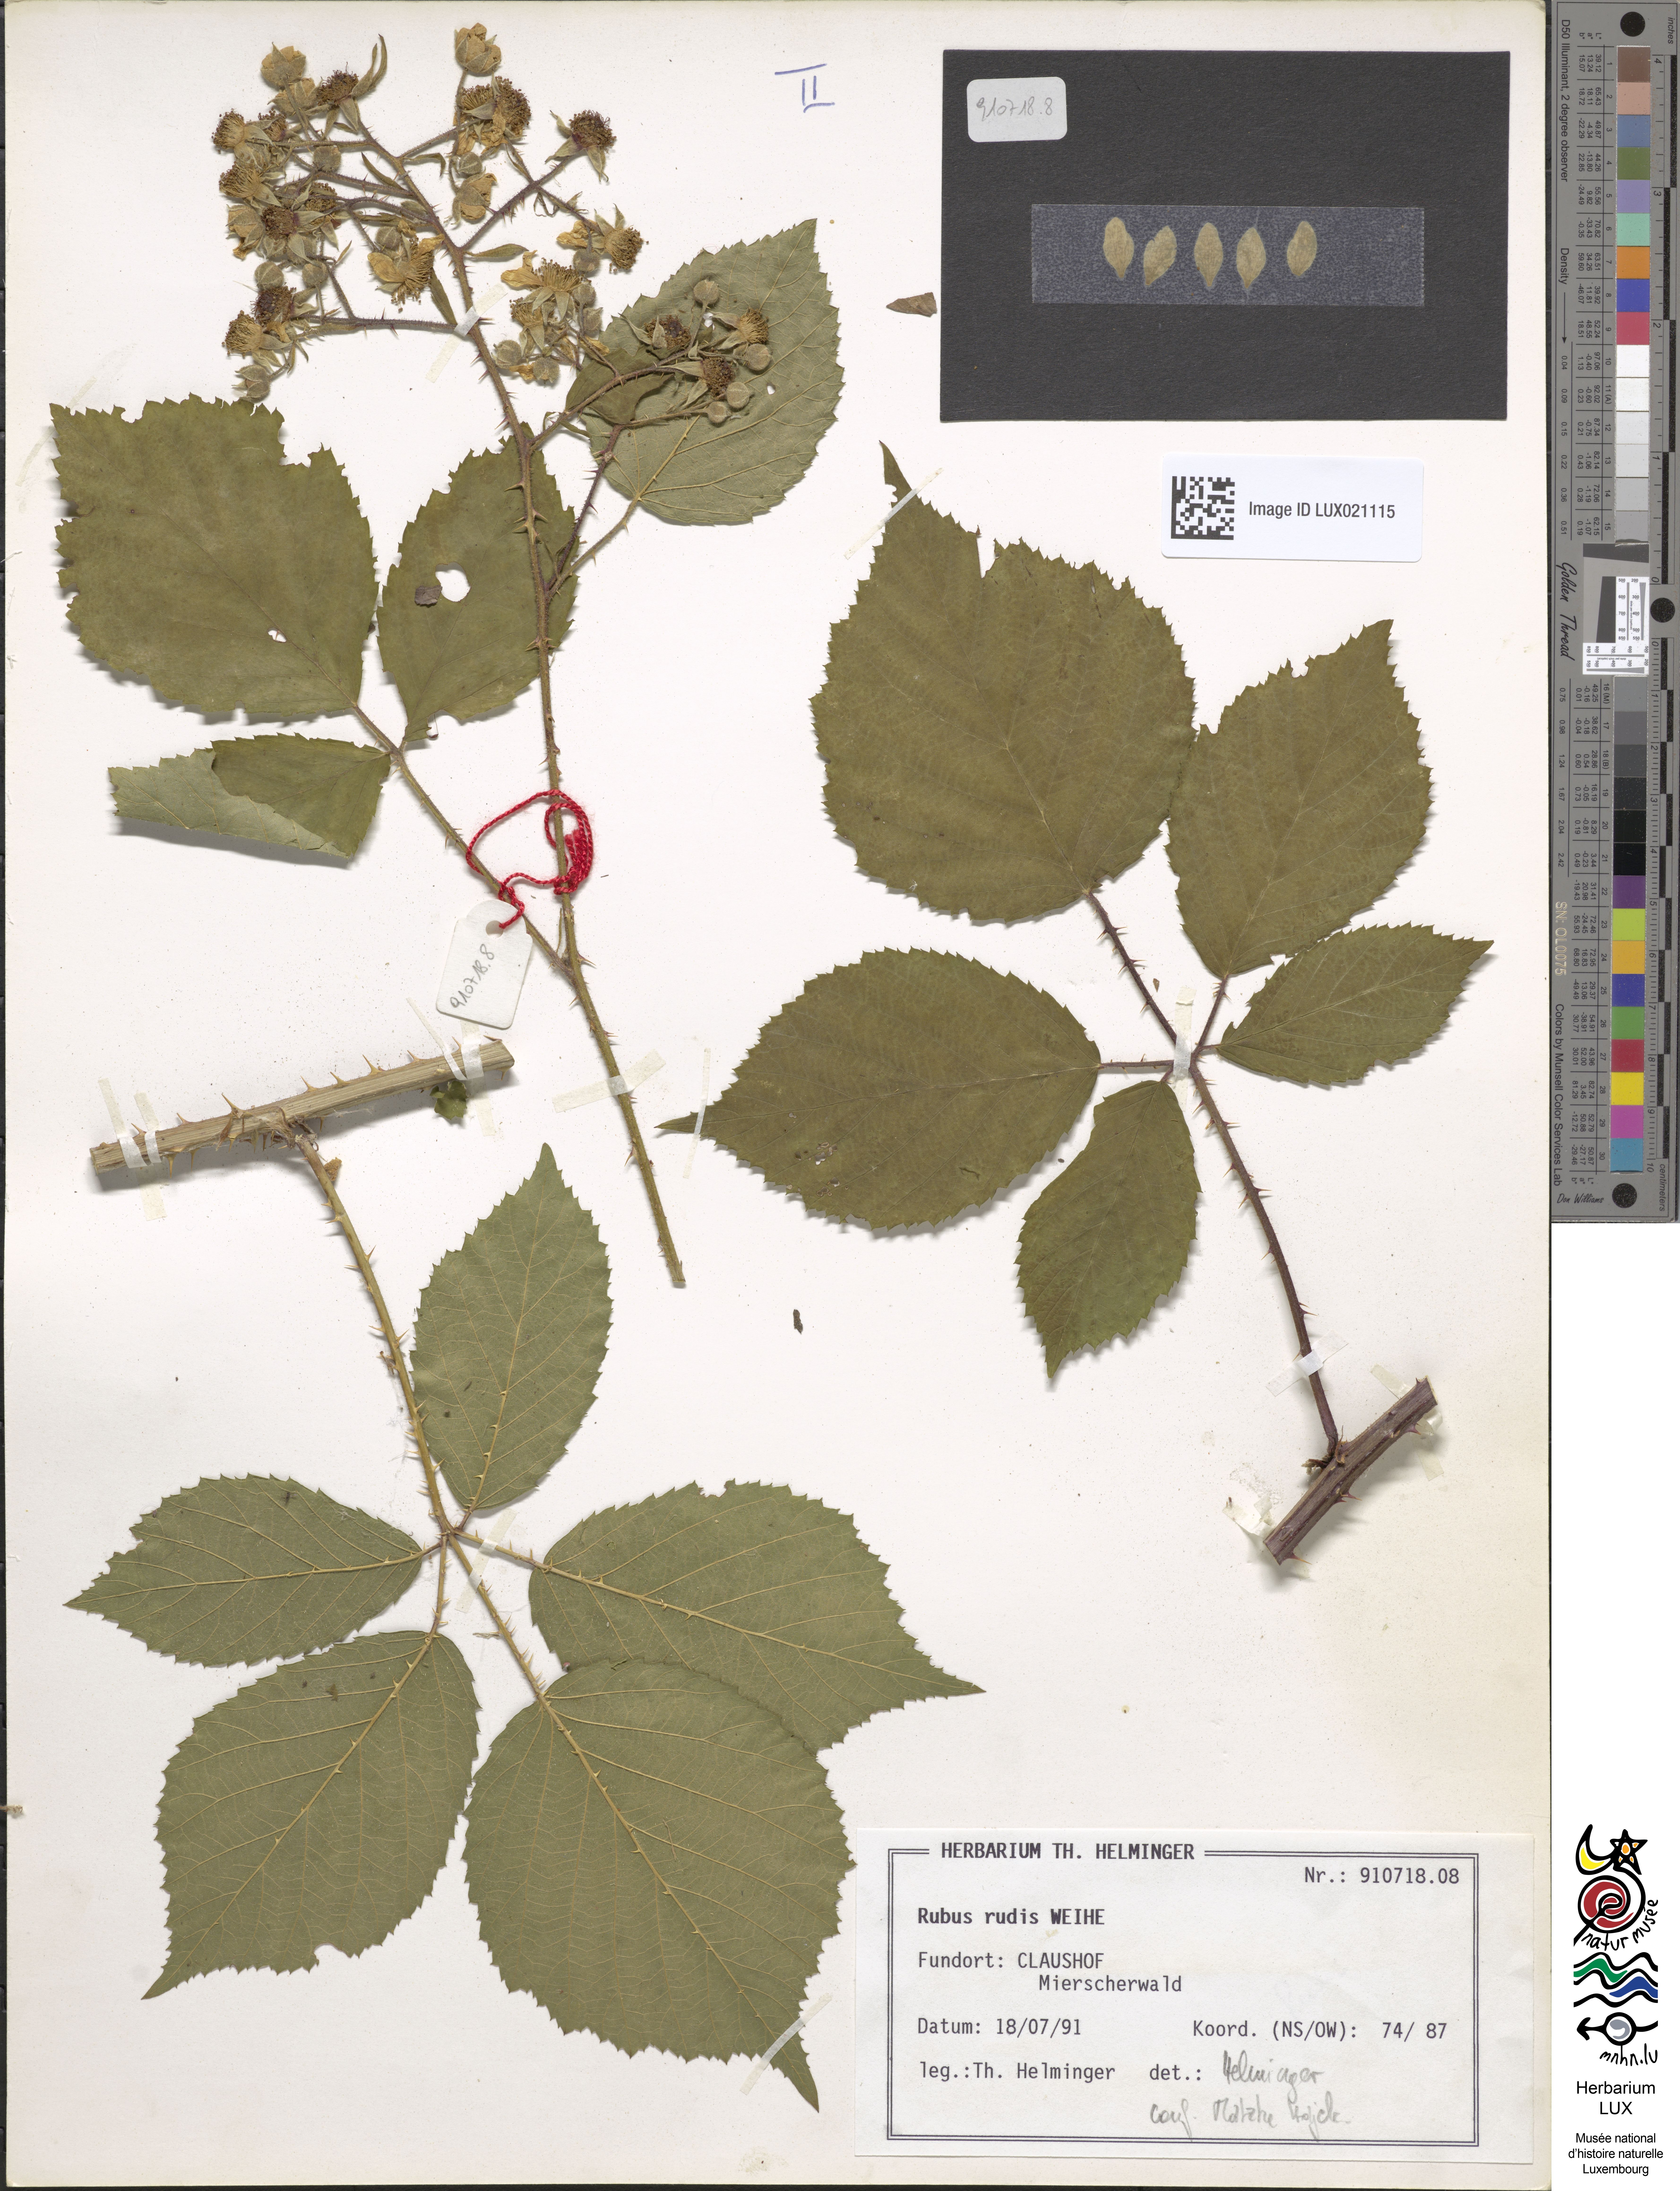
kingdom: Plantae
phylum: Tracheophyta
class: Magnoliopsida
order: Rosales
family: Rosaceae
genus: Rubus
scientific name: Rubus rudis
